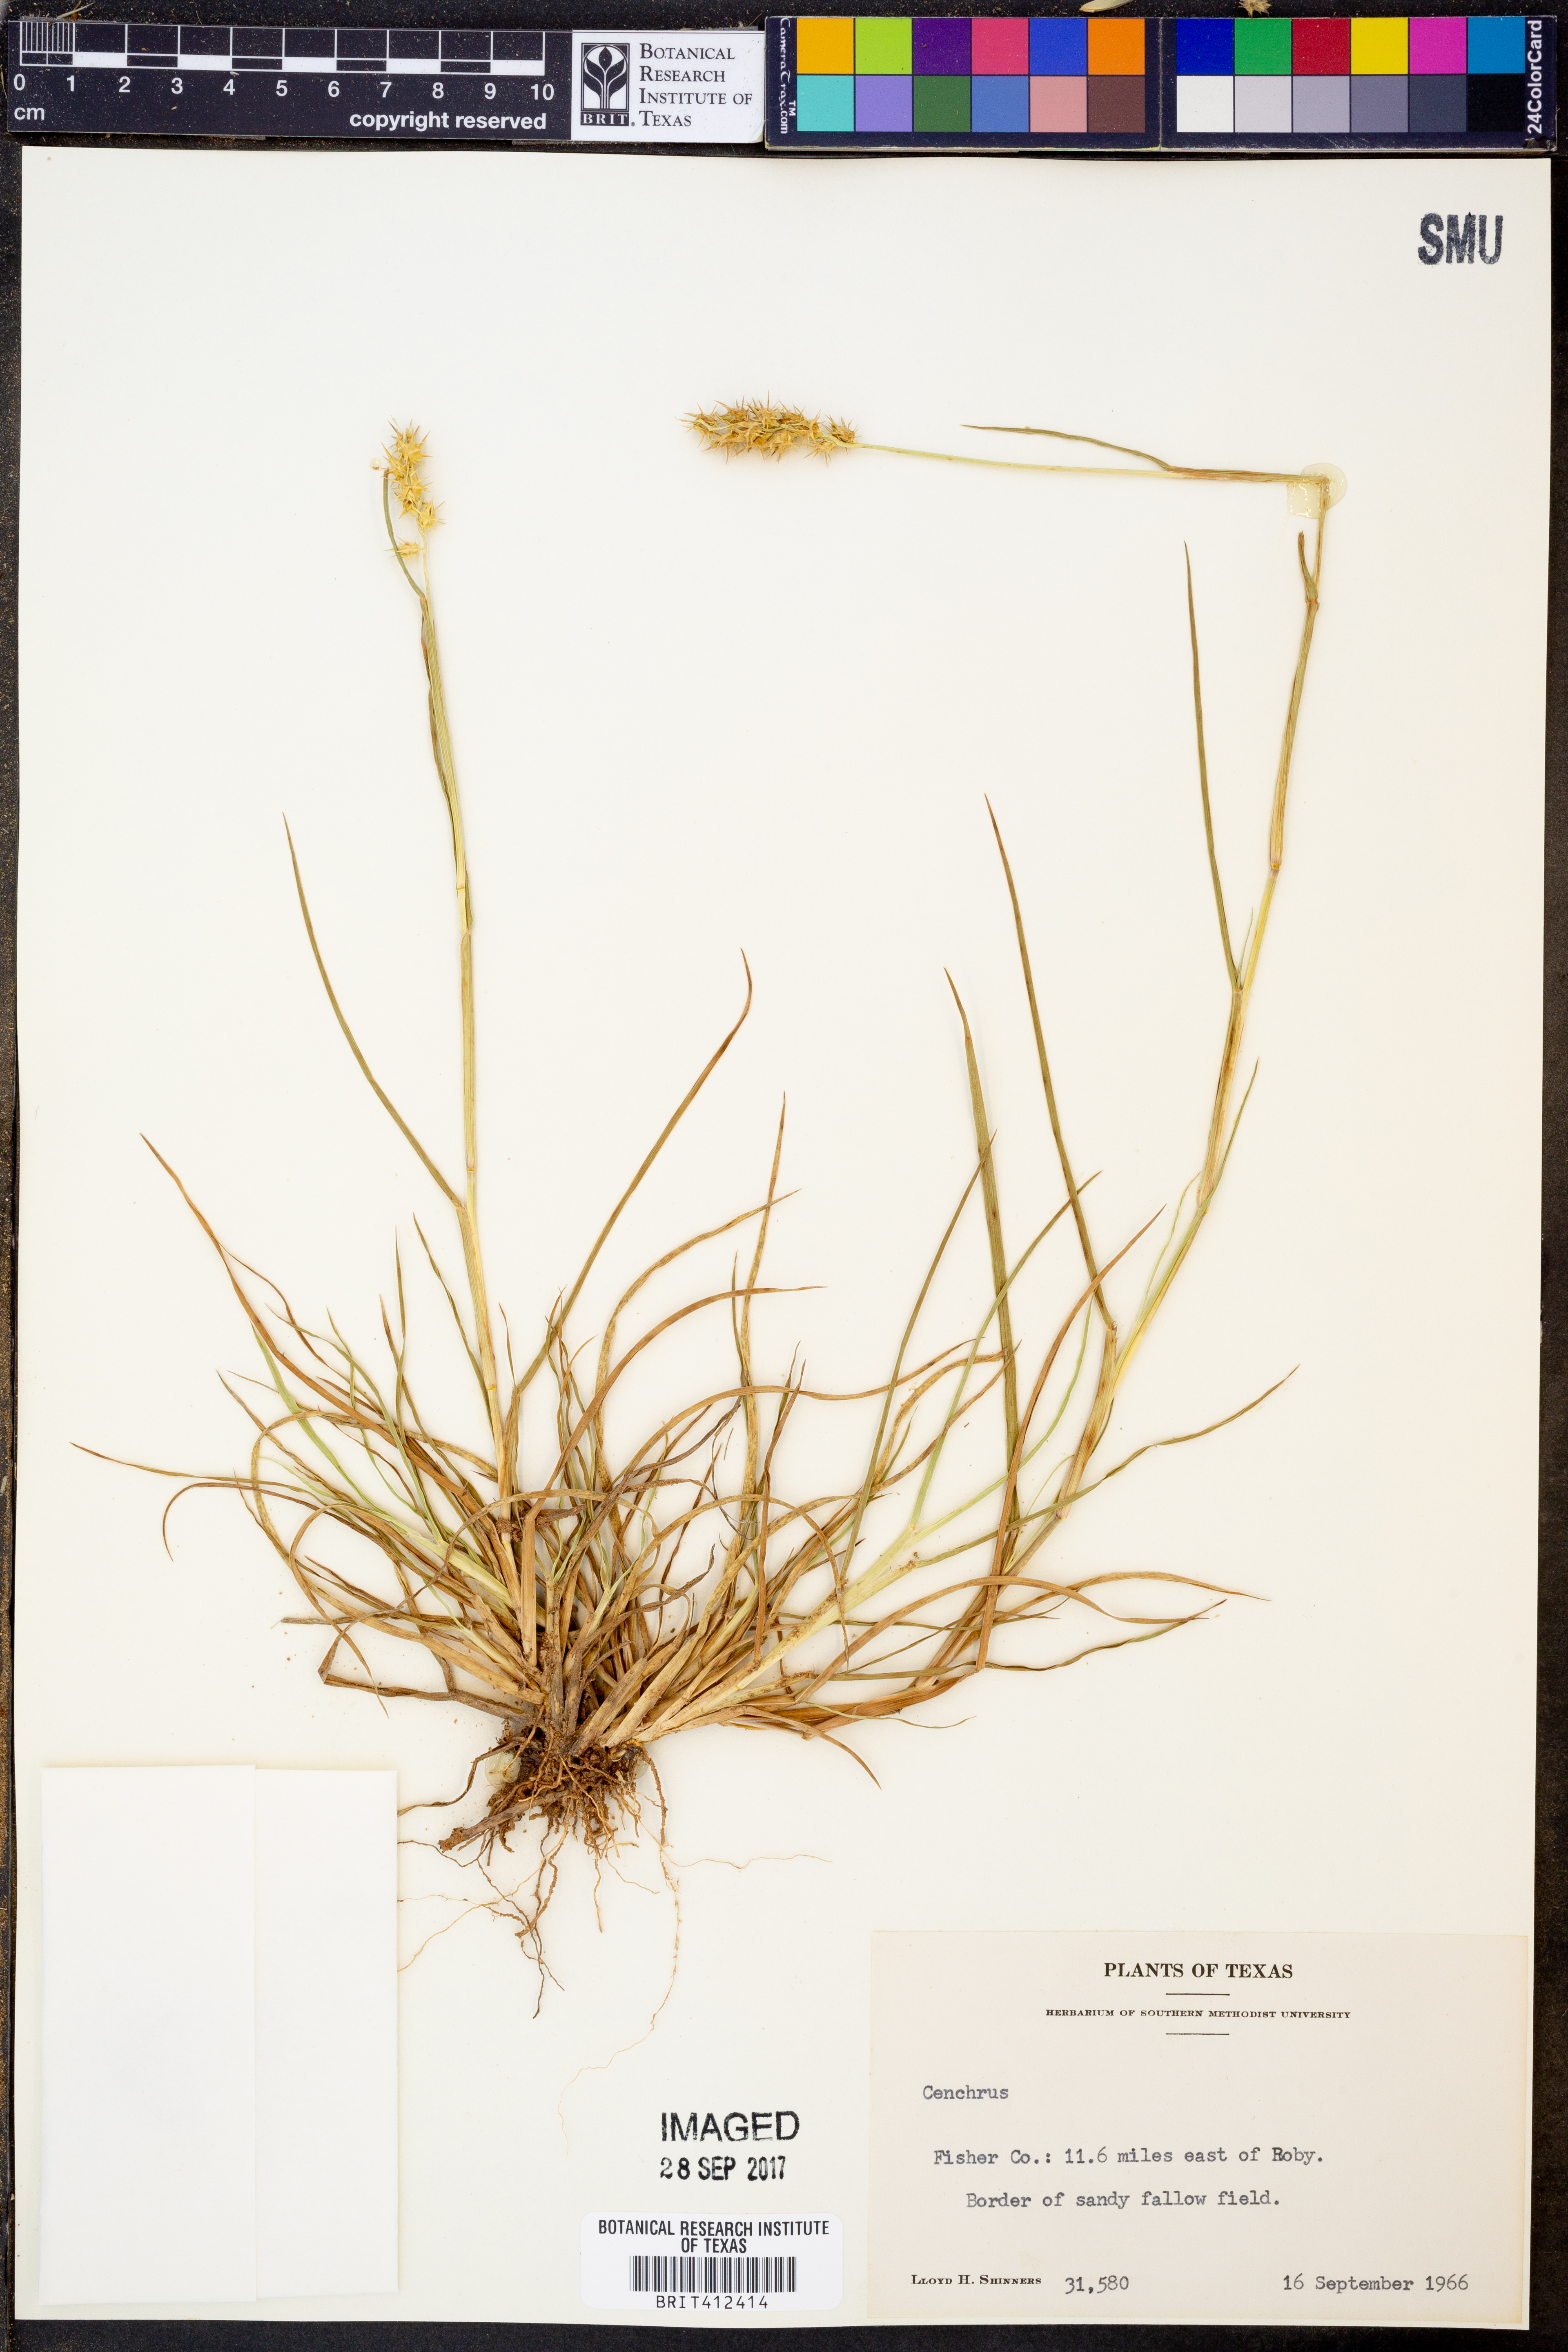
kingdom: Plantae
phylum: Tracheophyta
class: Liliopsida
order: Poales
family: Poaceae
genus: Cenchrus
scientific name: Cenchrus
